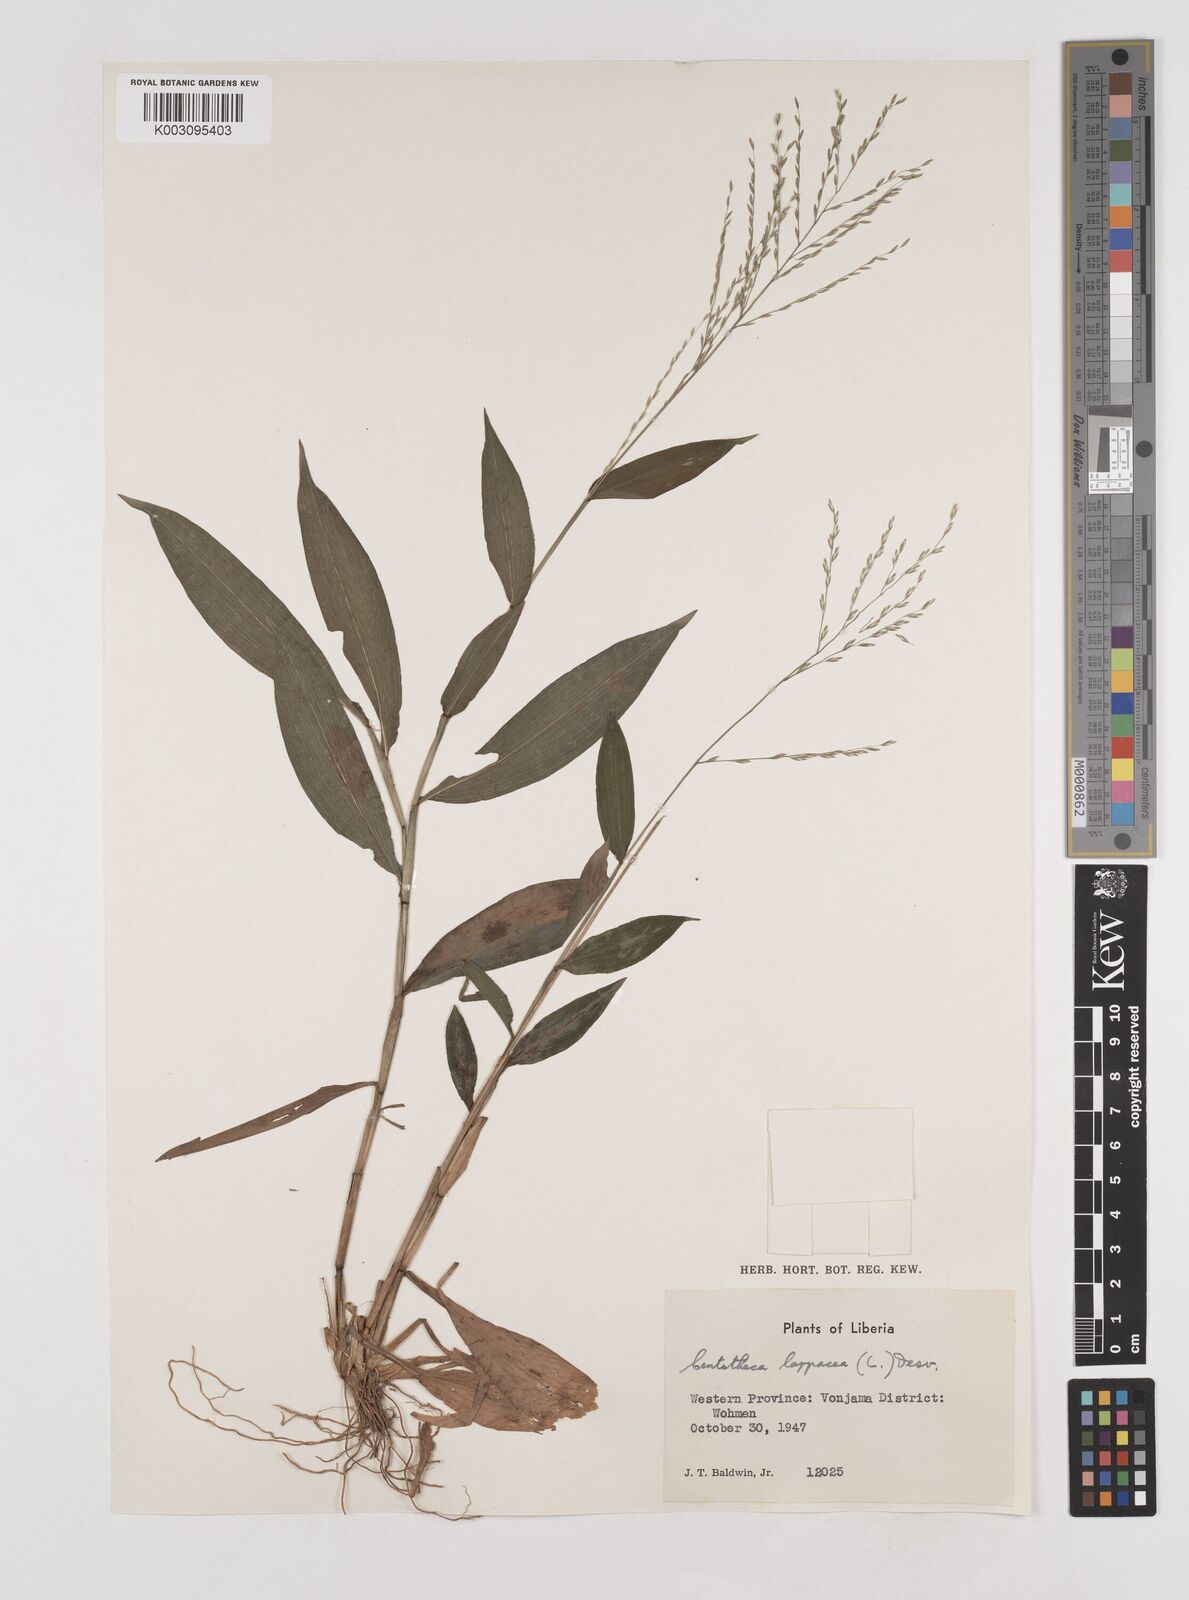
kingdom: Plantae
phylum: Tracheophyta
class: Liliopsida
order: Poales
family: Poaceae
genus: Centotheca
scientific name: Centotheca lappacea
